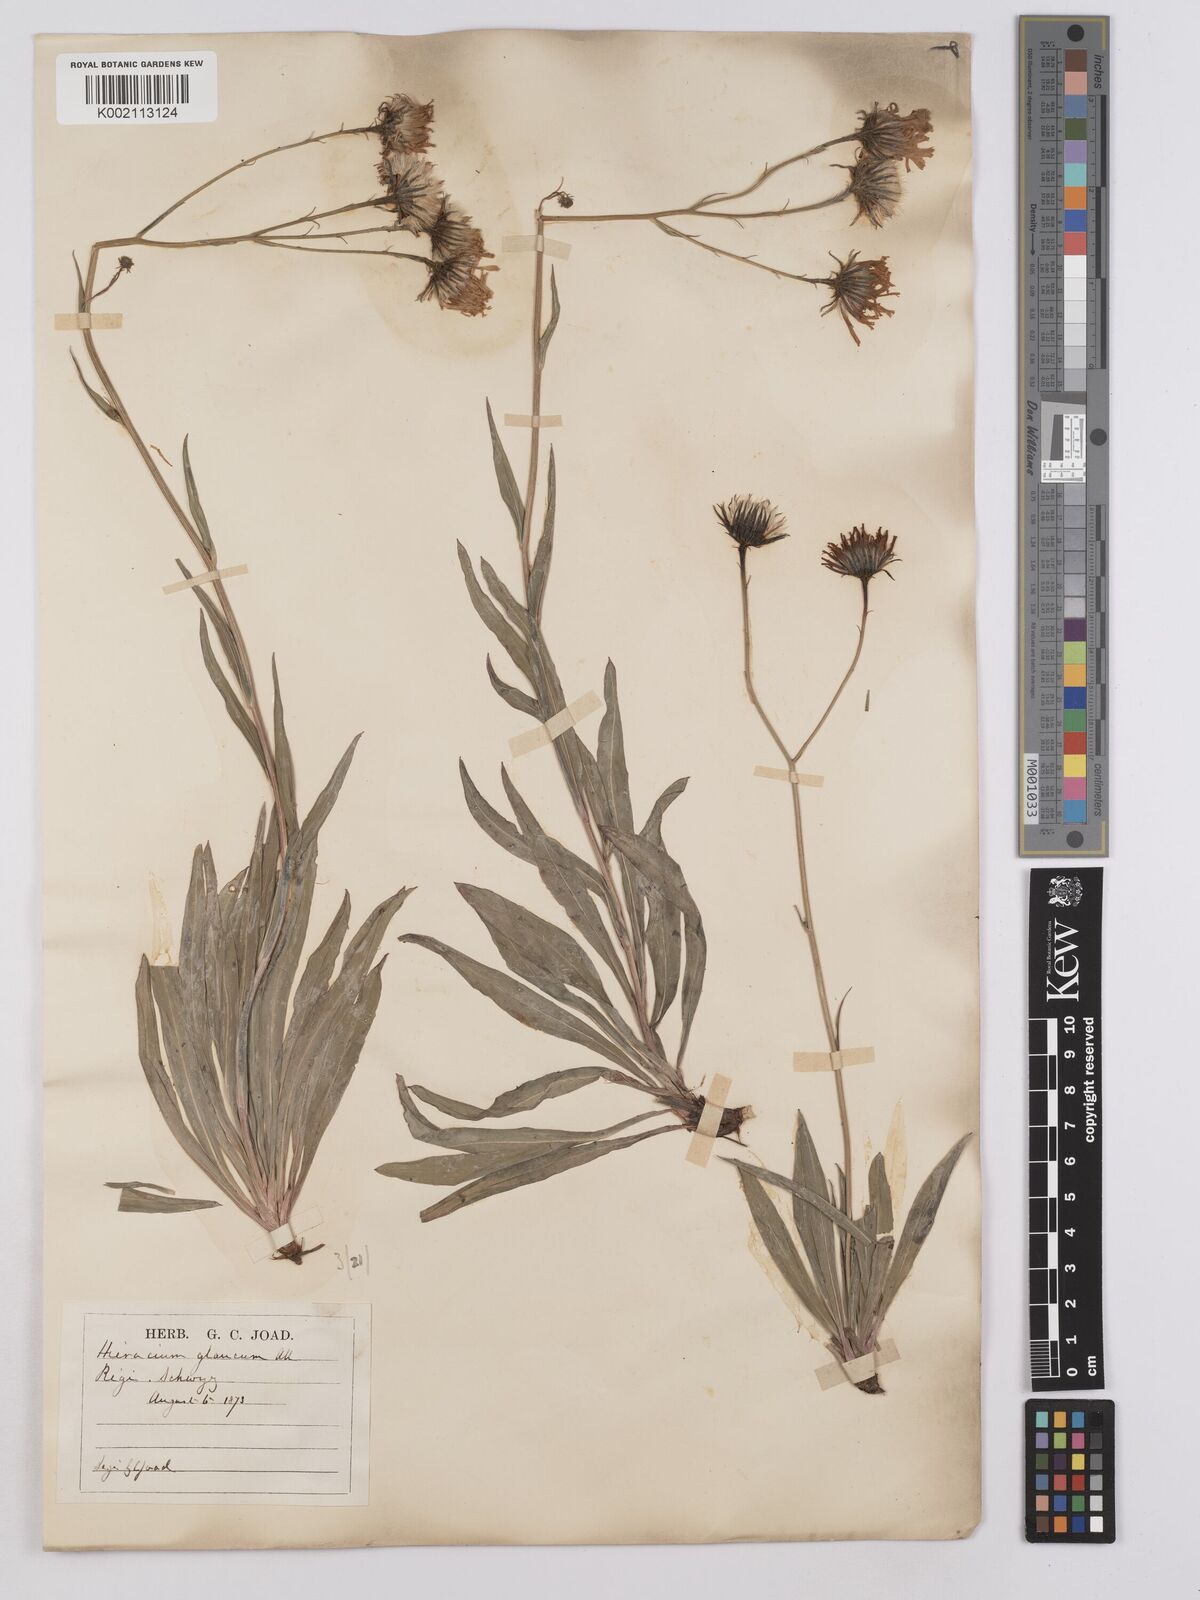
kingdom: Plantae
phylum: Tracheophyta
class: Magnoliopsida
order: Asterales
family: Asteraceae
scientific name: Asteraceae
